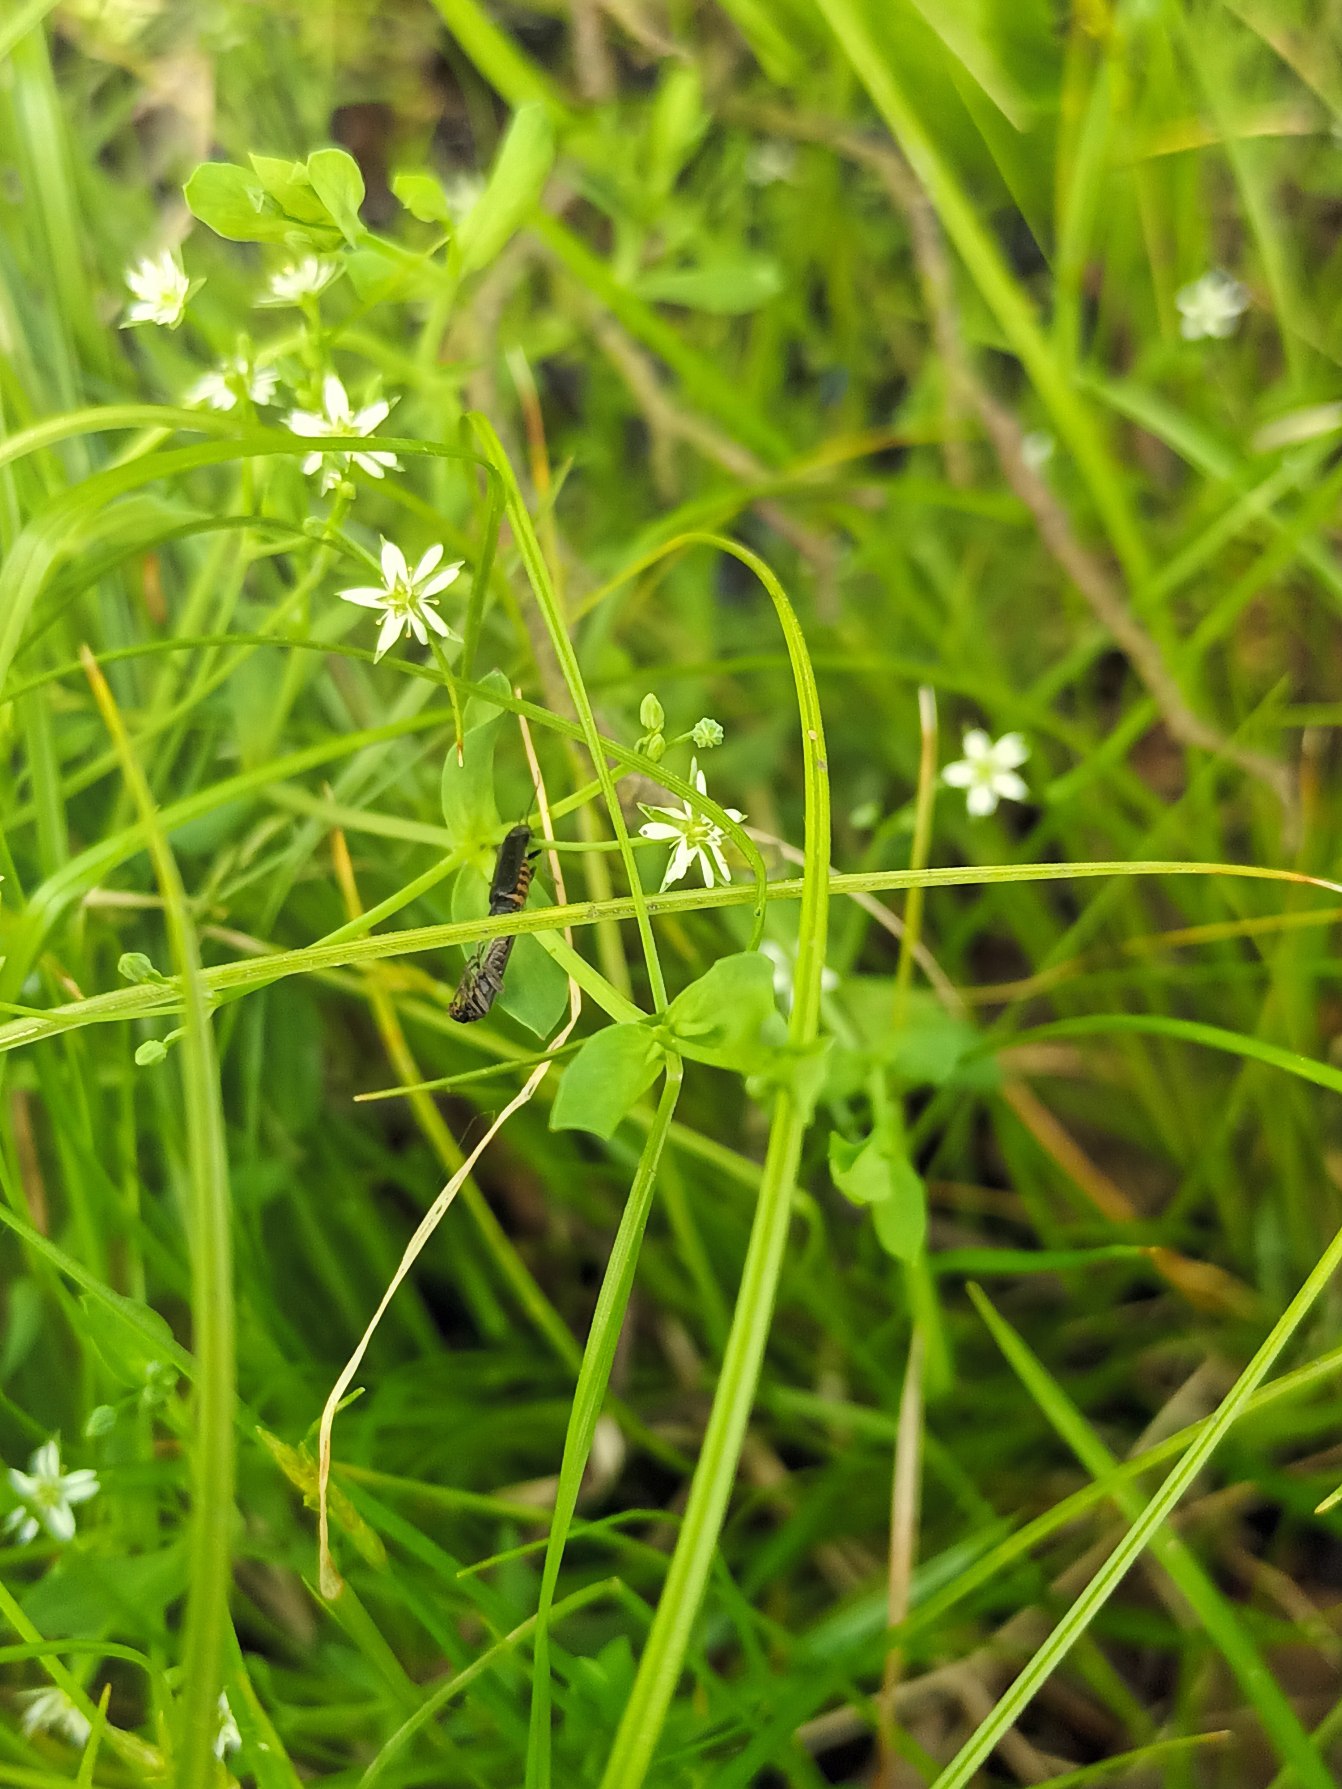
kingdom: Plantae
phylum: Tracheophyta
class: Magnoliopsida
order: Caryophyllales
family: Caryophyllaceae
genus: Stellaria
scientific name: Stellaria alsine
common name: Sump-fladstjerne
